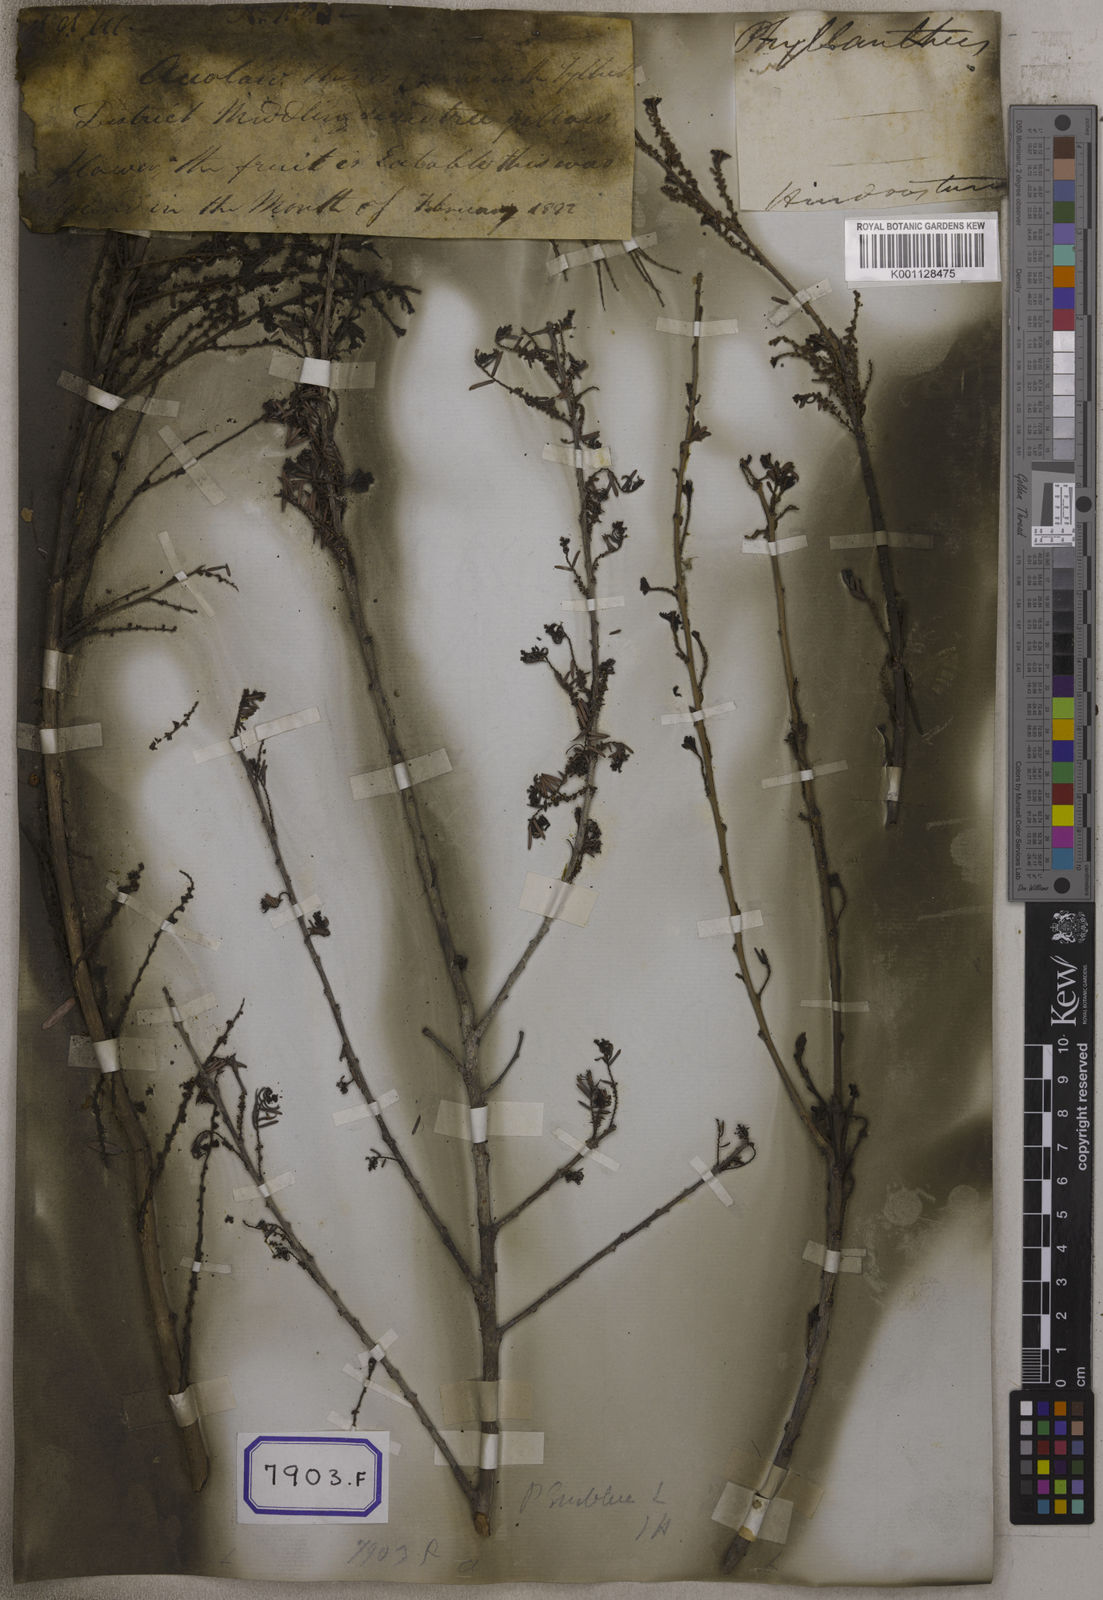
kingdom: Plantae
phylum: Tracheophyta
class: Magnoliopsida
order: Malpighiales
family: Euphorbiaceae
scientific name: Euphorbiaceae
